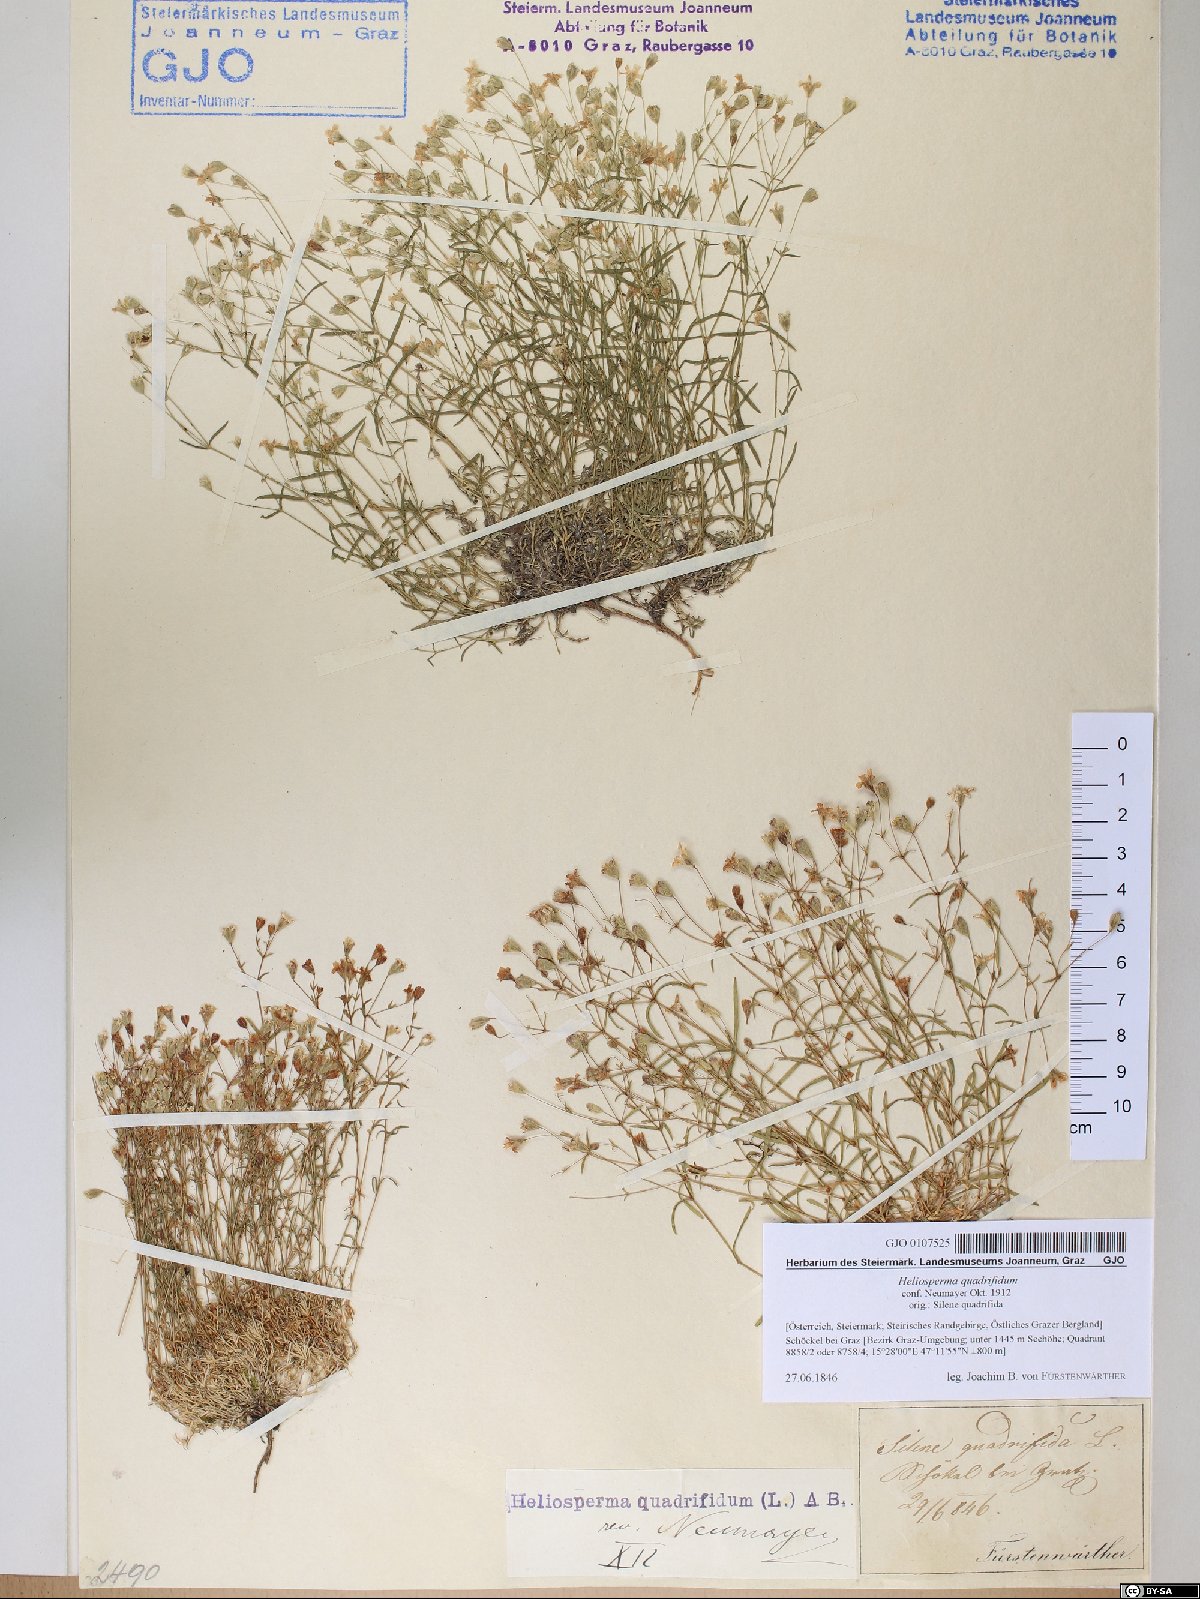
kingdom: Plantae
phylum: Tracheophyta
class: Magnoliopsida
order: Caryophyllales
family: Caryophyllaceae
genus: Heliosperma
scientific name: Heliosperma alpestre
